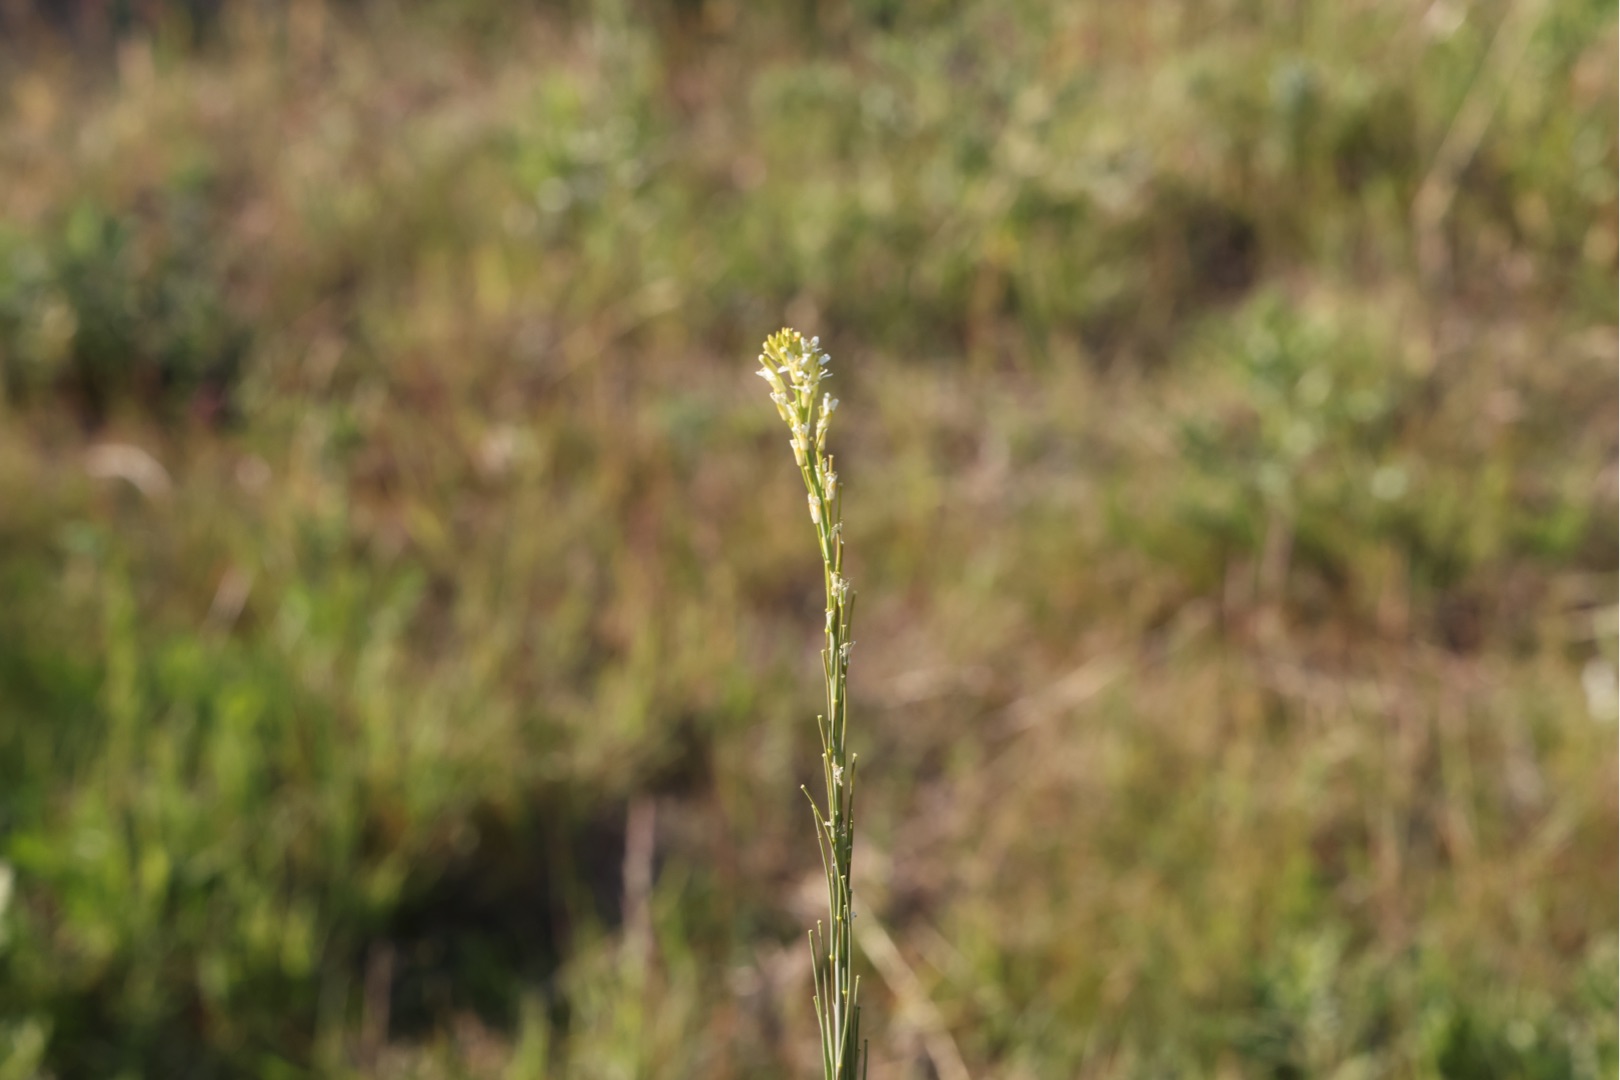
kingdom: Plantae
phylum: Tracheophyta
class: Magnoliopsida
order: Brassicales
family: Brassicaceae
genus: Turritis
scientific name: Turritis glabra
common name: Tårnurt
